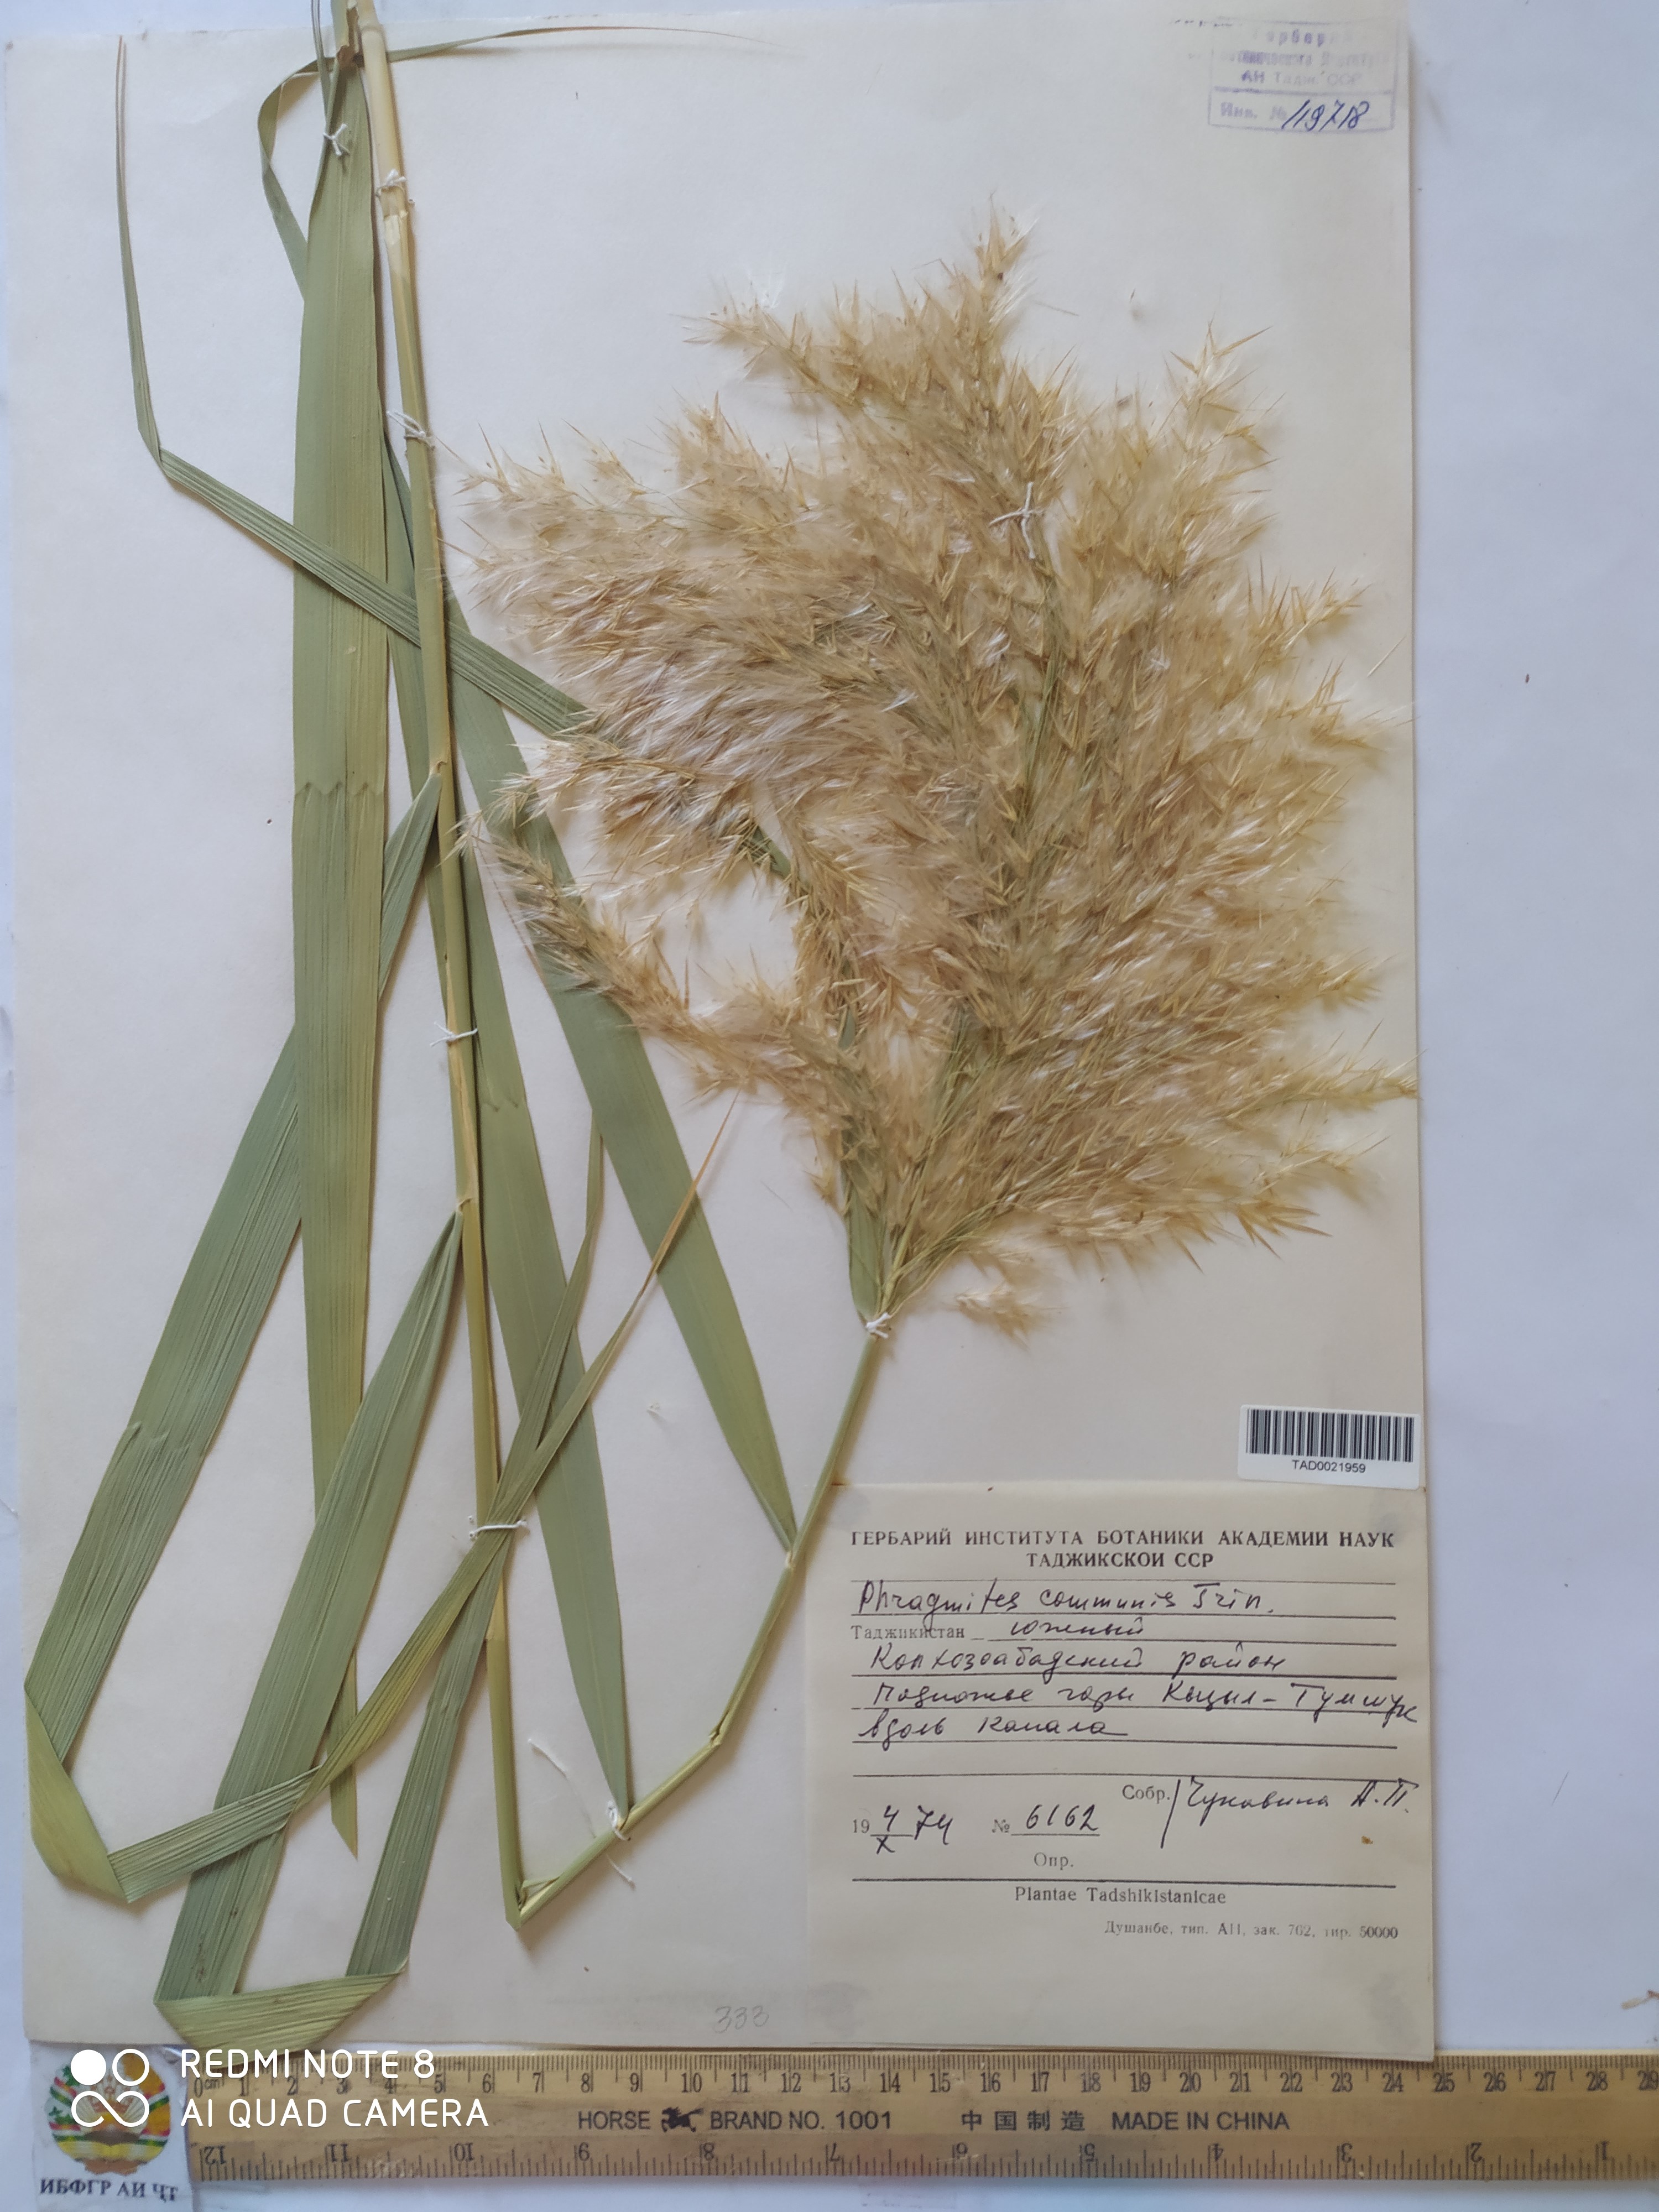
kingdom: Plantae
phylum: Tracheophyta
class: Liliopsida
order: Poales
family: Poaceae
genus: Phragmites
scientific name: Phragmites australis
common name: Common reed
